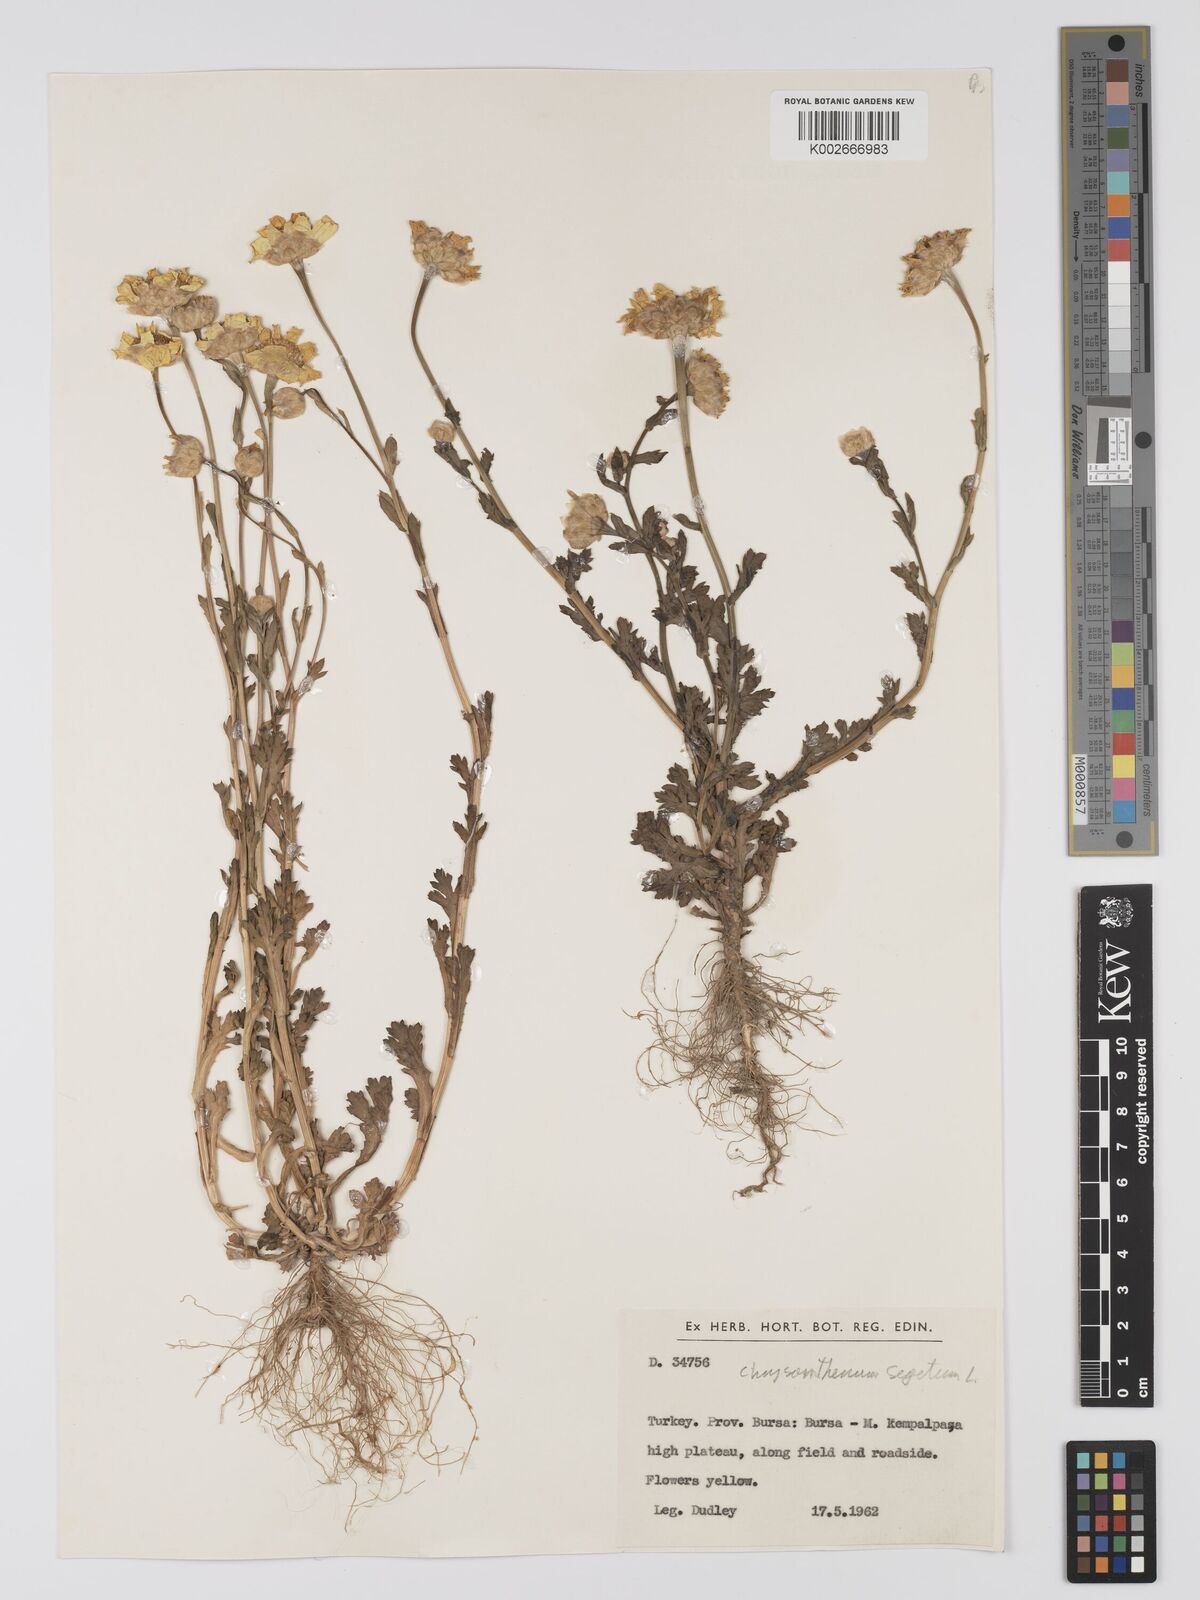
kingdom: Plantae
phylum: Tracheophyta
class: Magnoliopsida
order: Asterales
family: Asteraceae
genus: Glebionis
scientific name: Glebionis segetum
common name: Corndaisy
